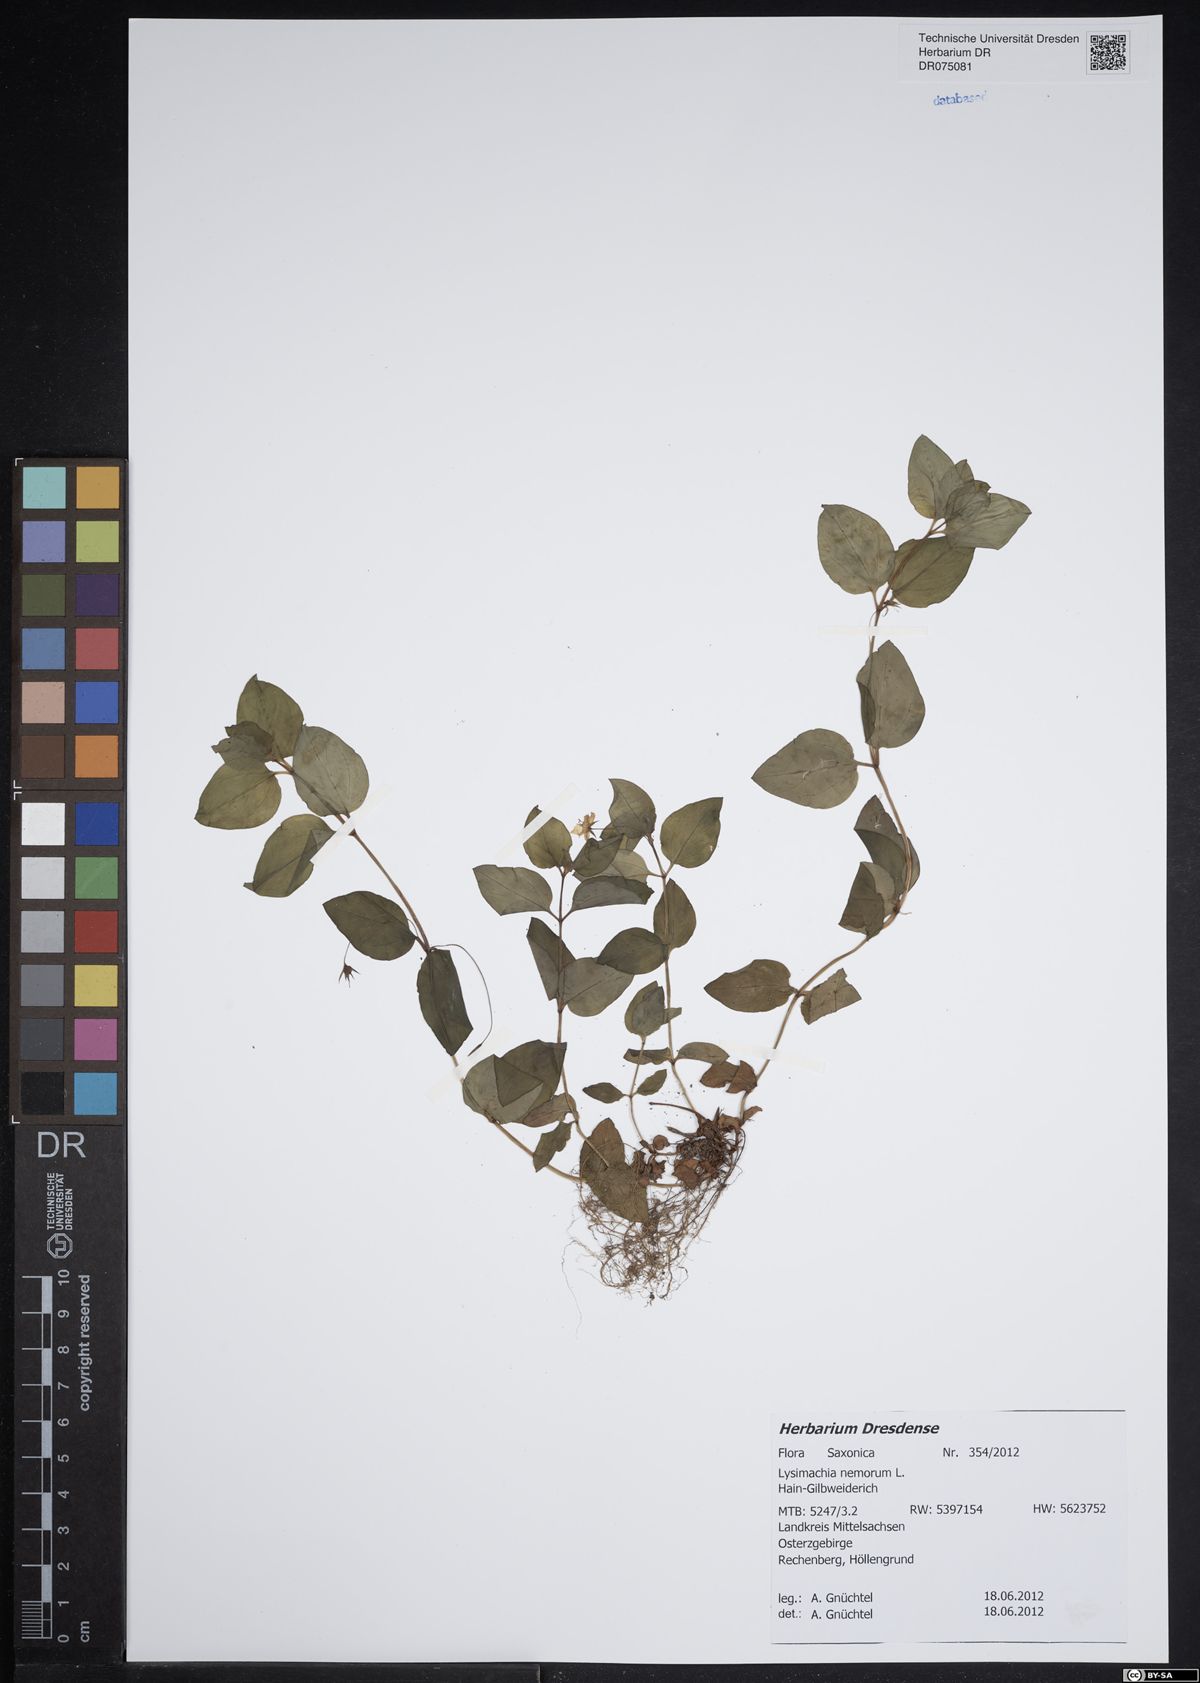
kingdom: Plantae
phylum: Tracheophyta
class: Magnoliopsida
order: Ericales
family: Primulaceae
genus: Lysimachia
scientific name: Lysimachia nemorum
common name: Yellow pimpernel
